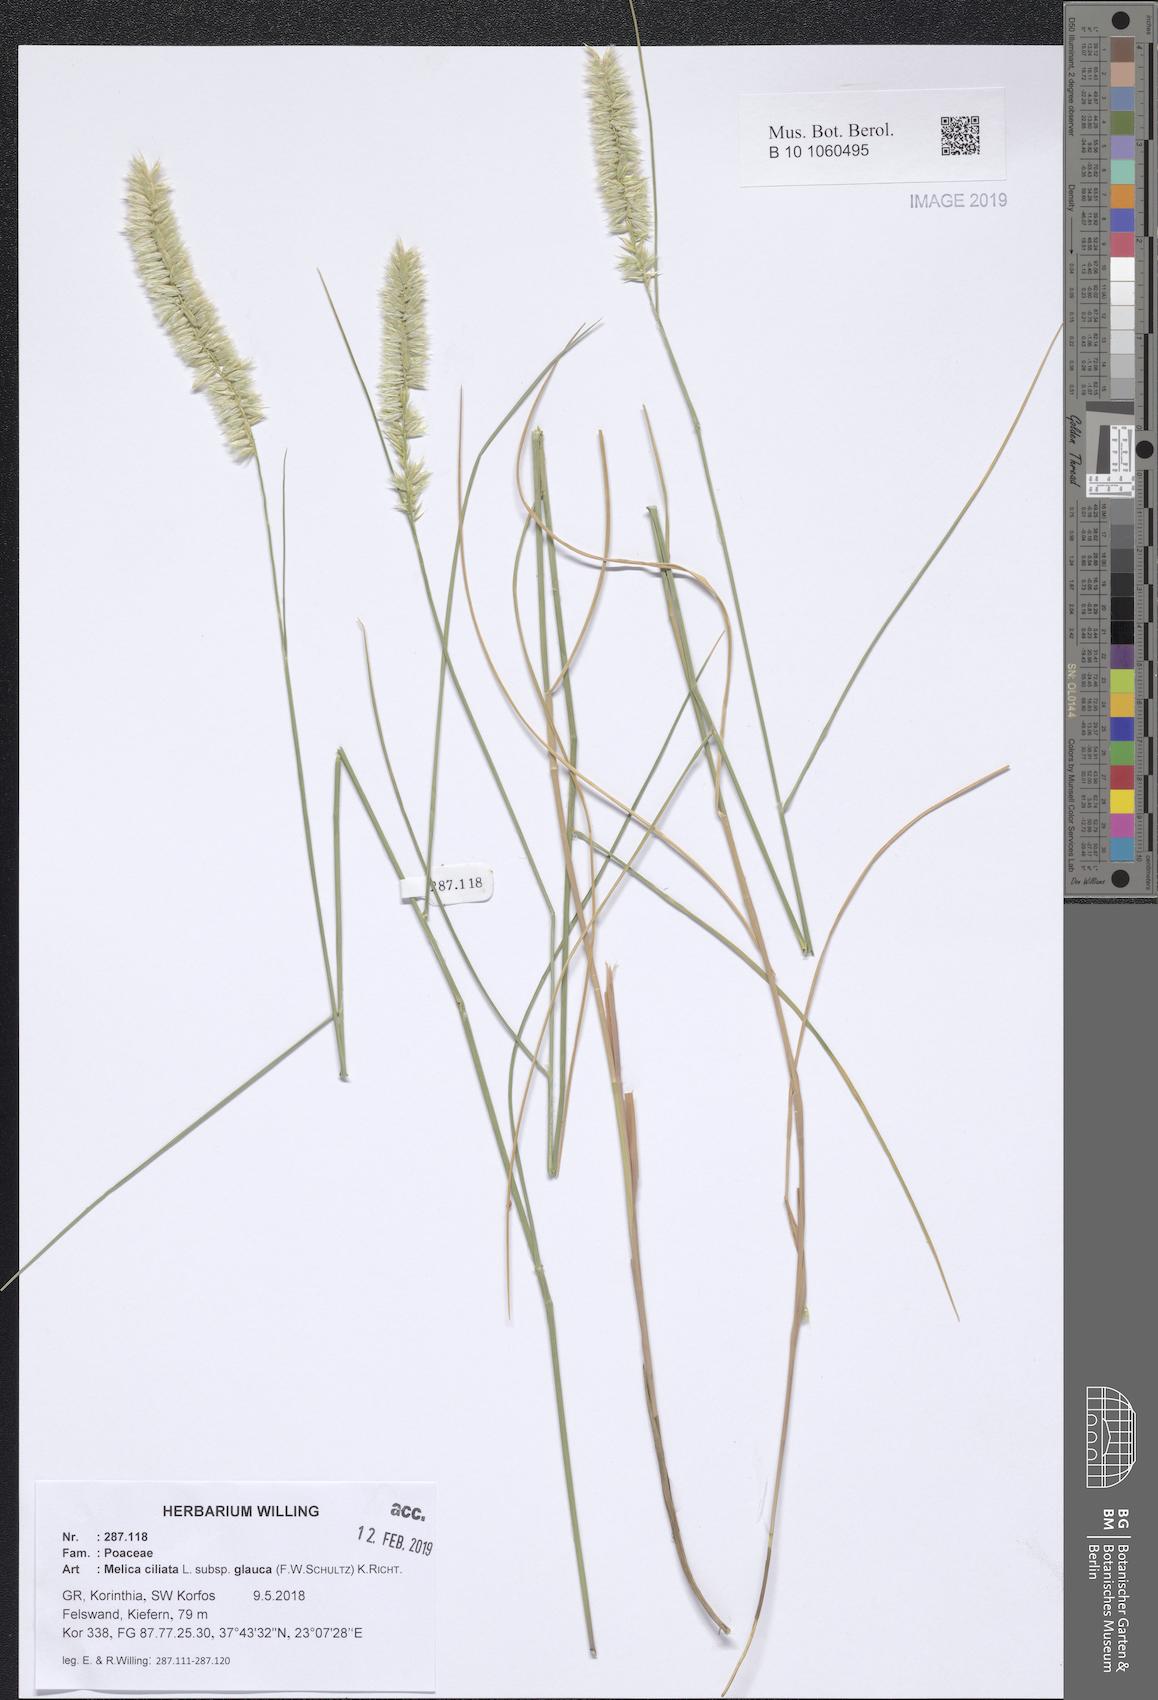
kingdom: Plantae
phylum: Tracheophyta
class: Liliopsida
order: Poales
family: Poaceae
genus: Melica
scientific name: Melica ciliata
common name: Hairy melicgrass
